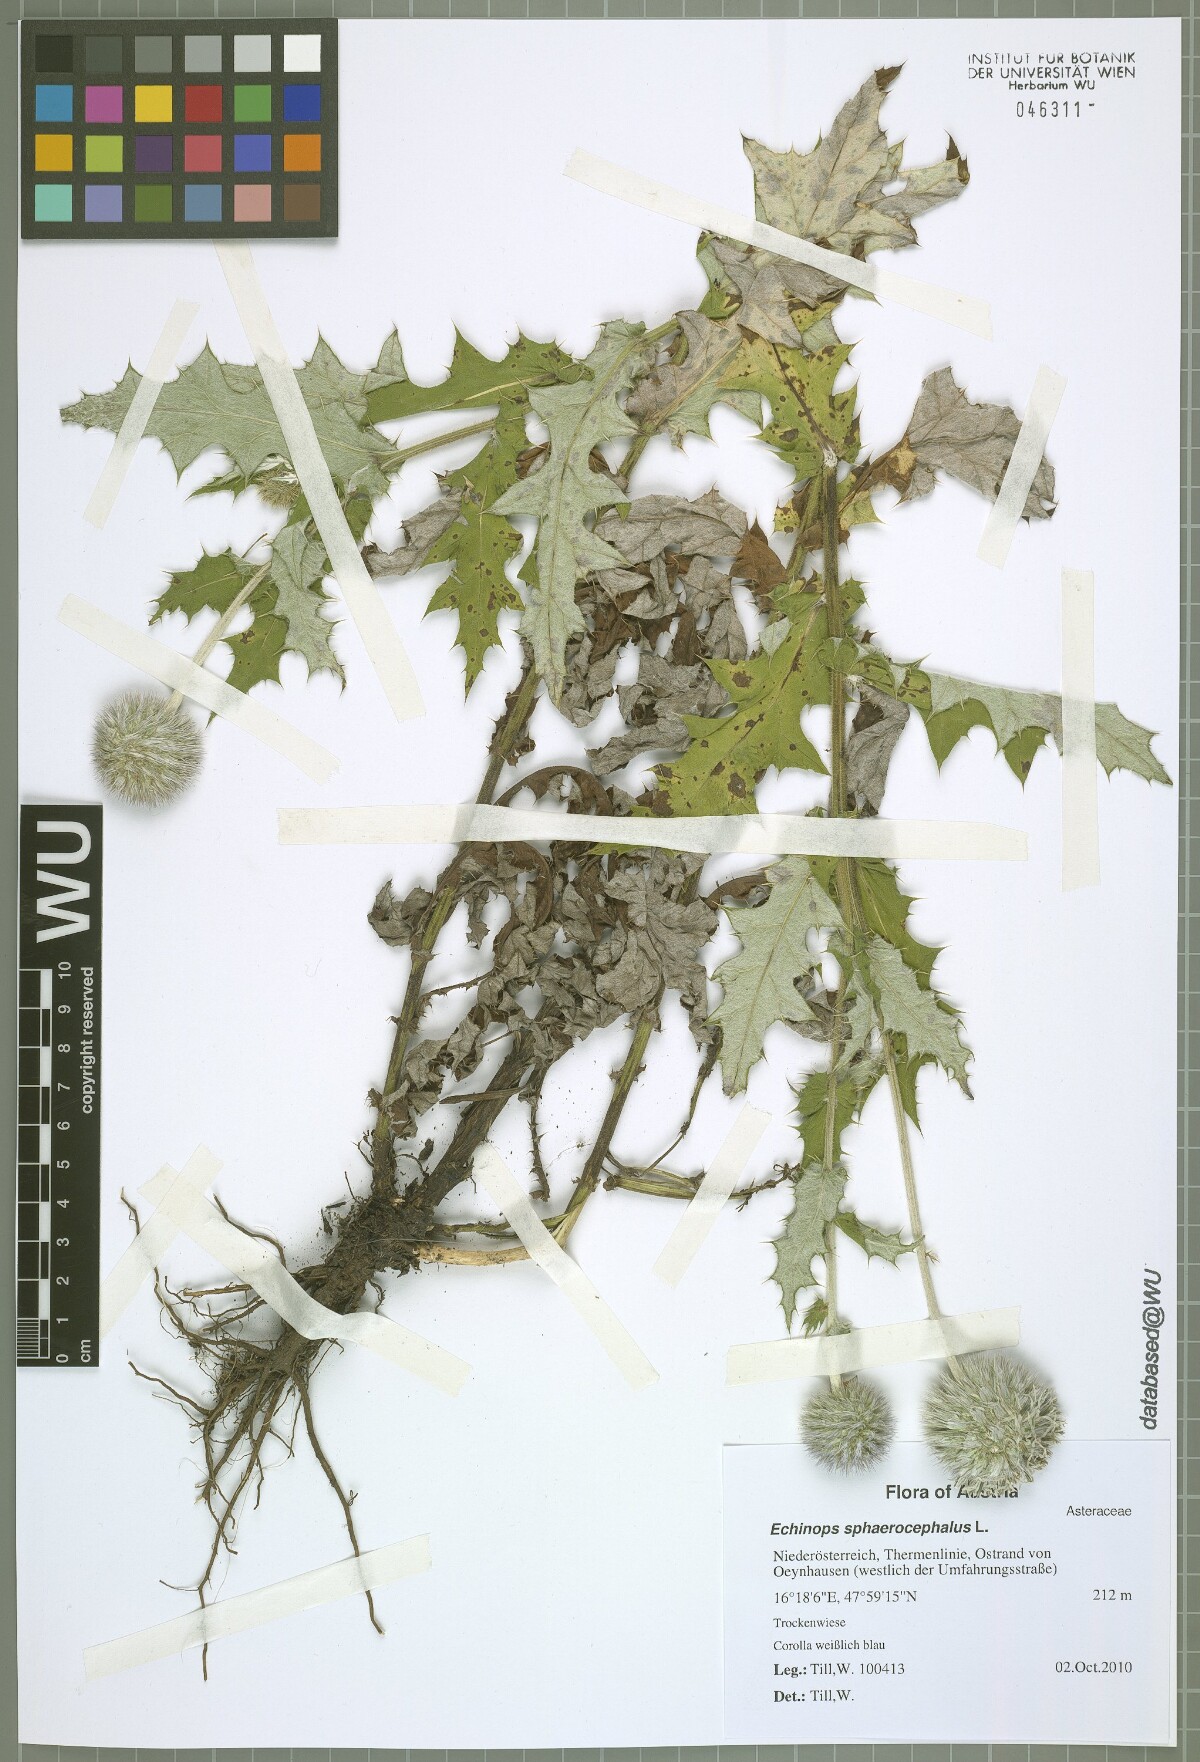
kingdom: Plantae
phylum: Tracheophyta
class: Magnoliopsida
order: Asterales
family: Asteraceae
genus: Echinops
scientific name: Echinops sphaerocephalus
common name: Glandular globe-thistle
